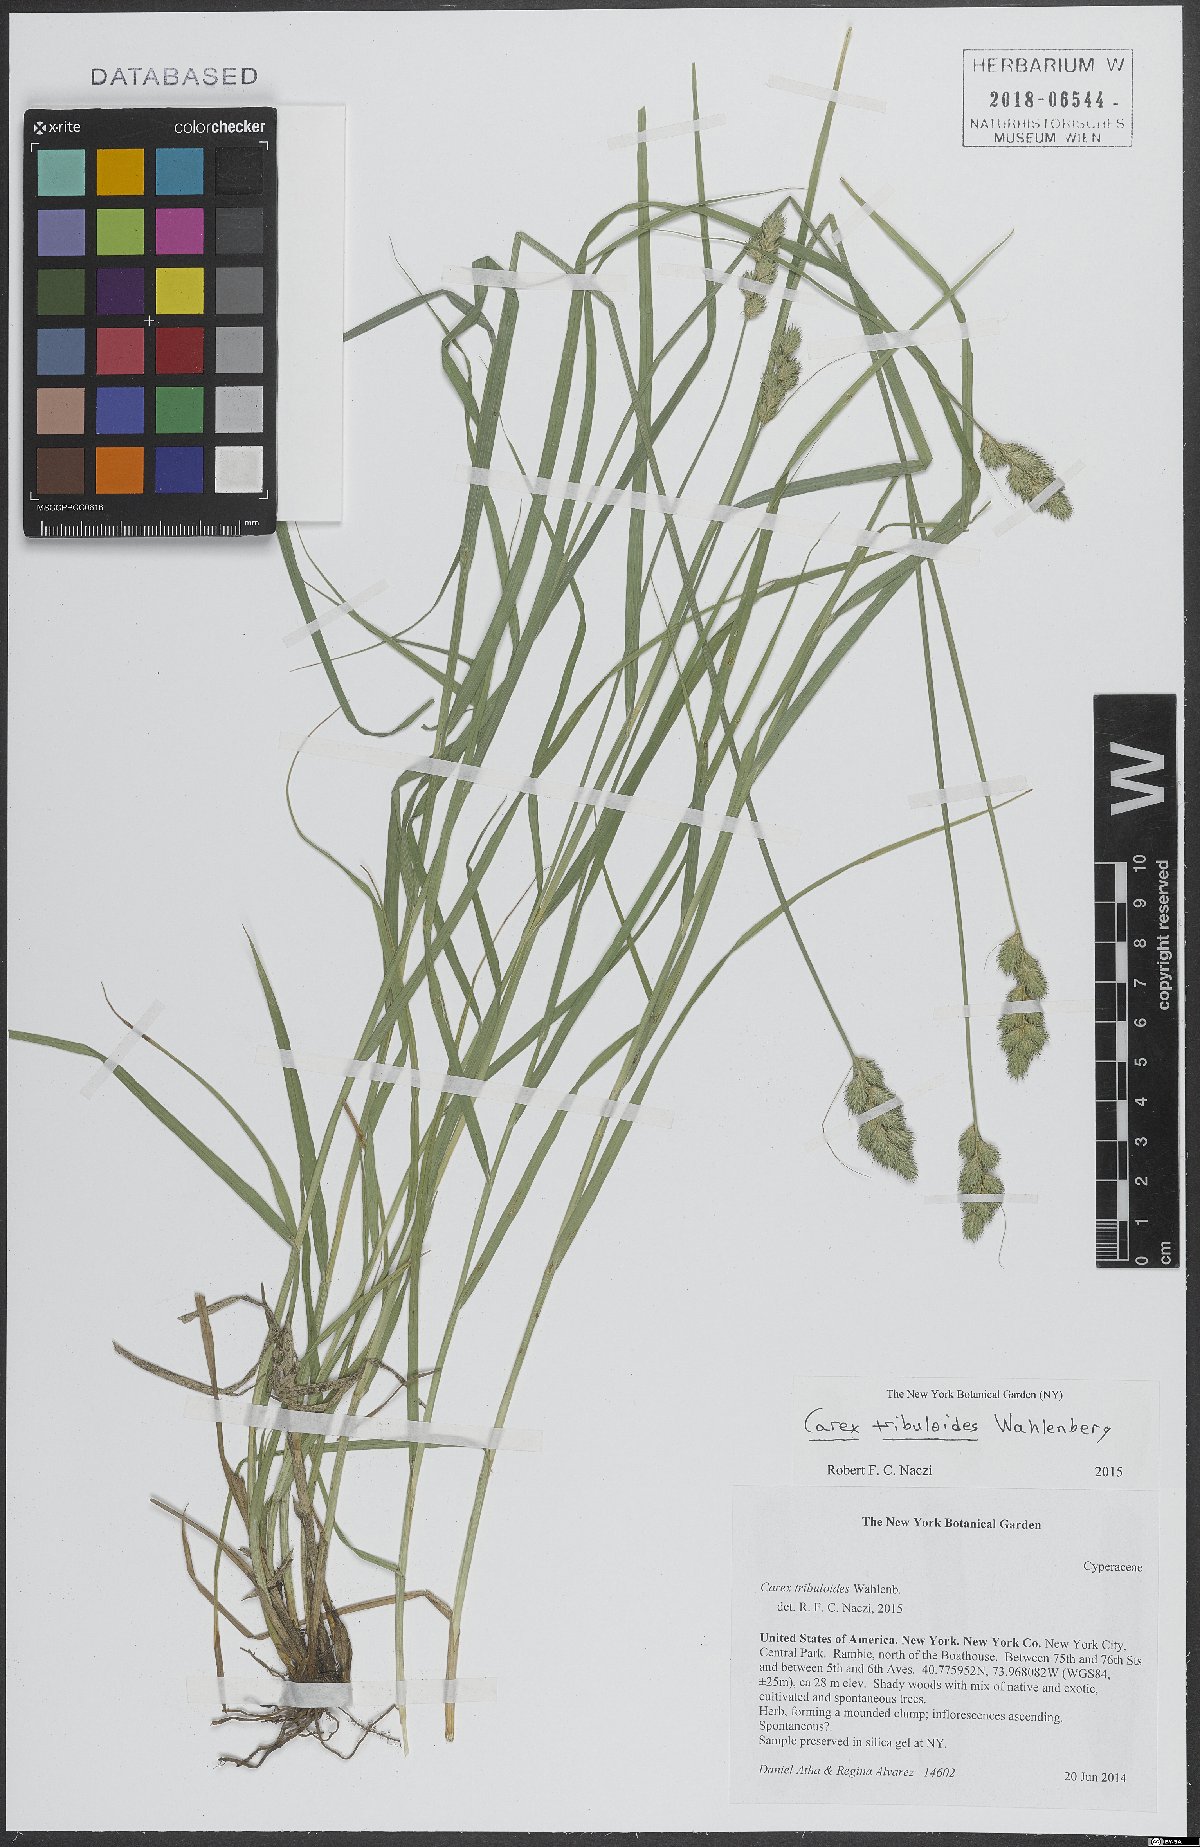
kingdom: Plantae
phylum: Tracheophyta
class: Liliopsida
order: Poales
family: Cyperaceae
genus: Carex
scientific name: Carex tribuloides
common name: Blunt broom sedge
